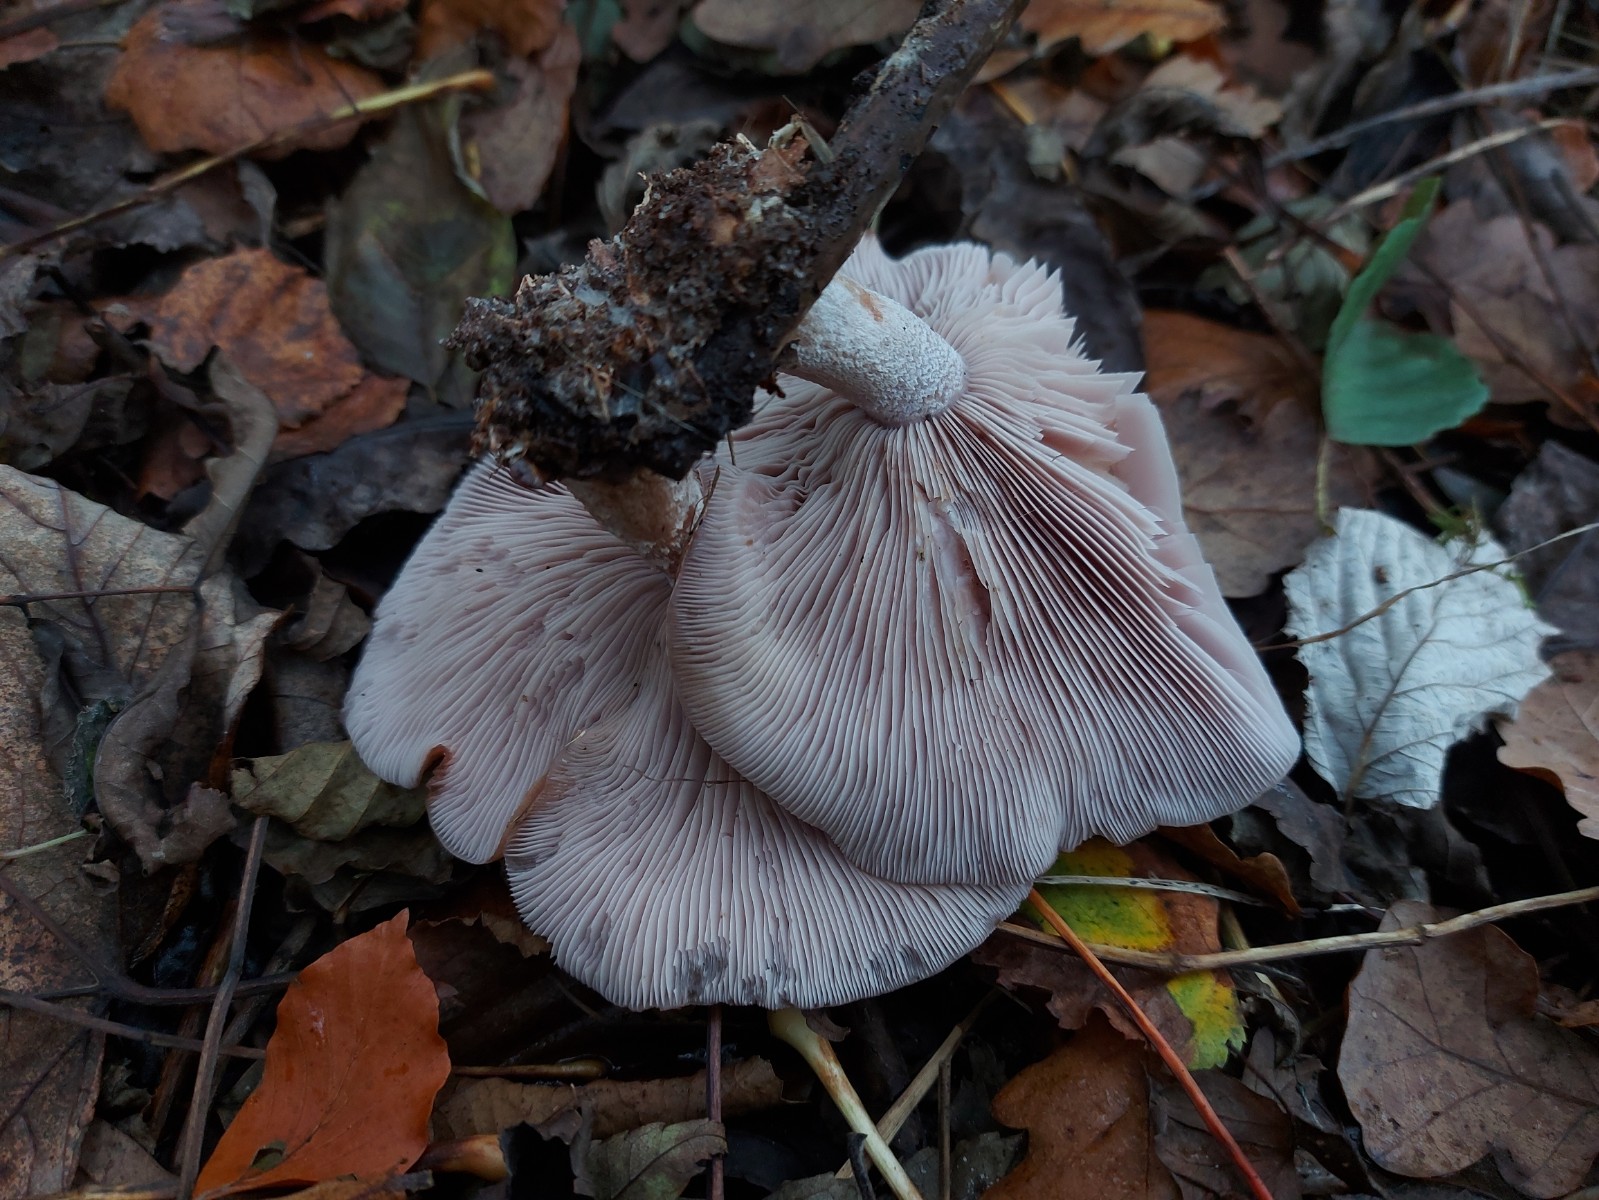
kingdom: Fungi
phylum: Basidiomycota
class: Agaricomycetes
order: Agaricales
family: Tricholomataceae
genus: Lepista
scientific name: Lepista nuda
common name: violet hekseringshat
